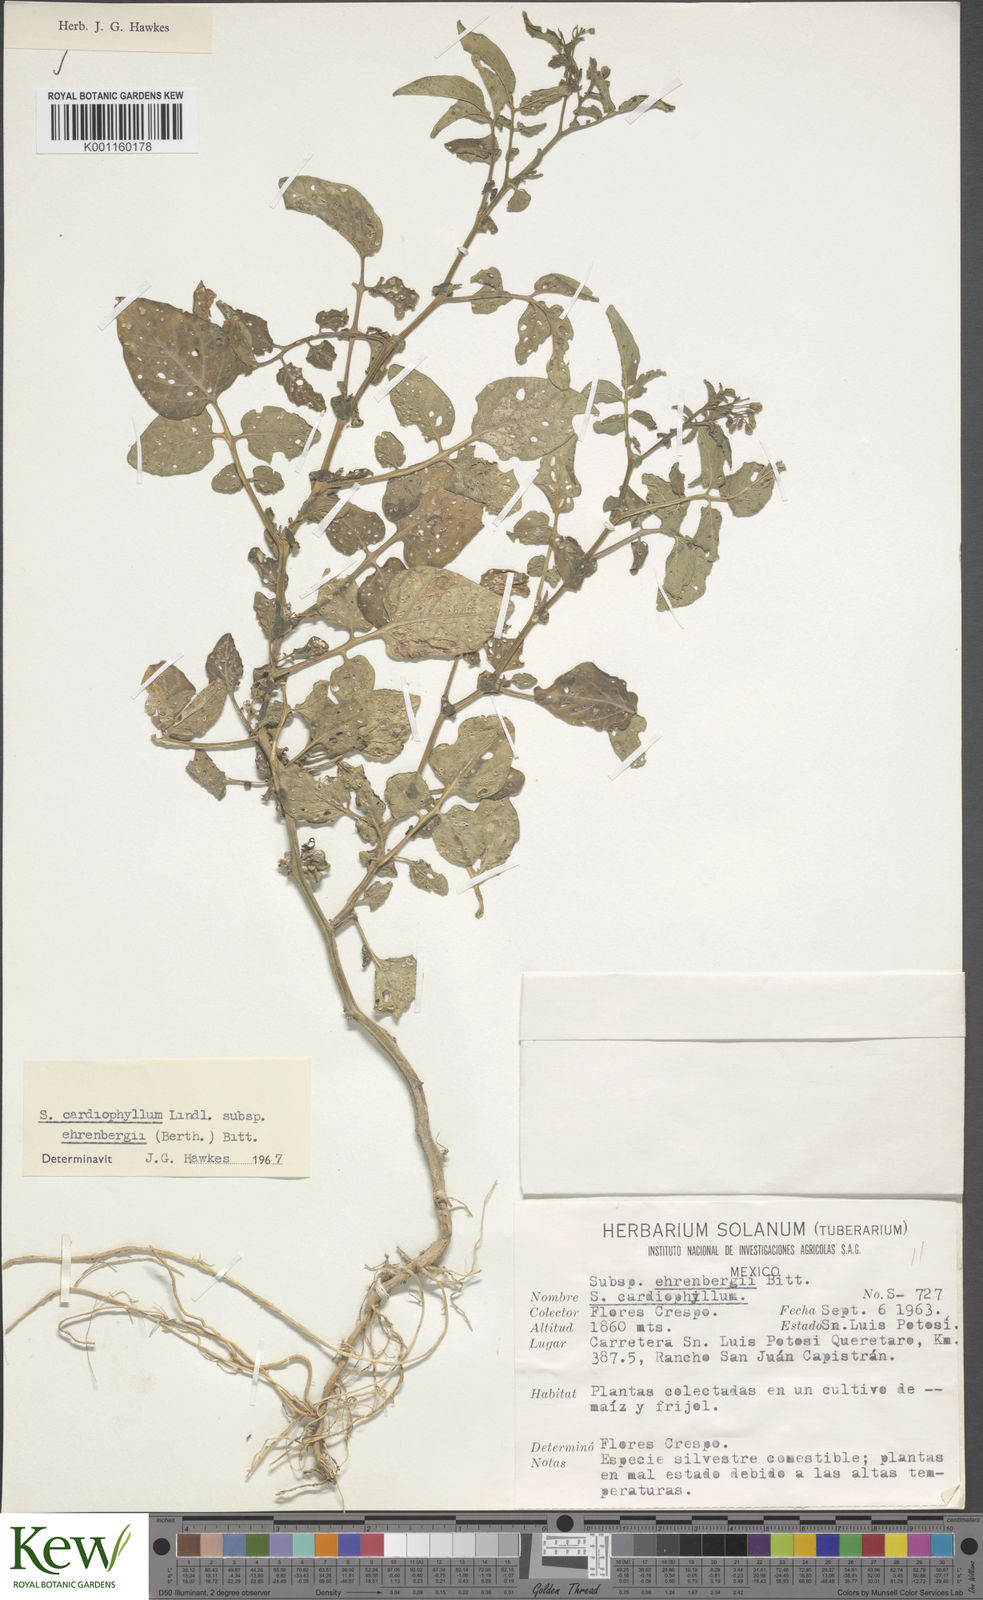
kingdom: Plantae
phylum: Tracheophyta
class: Magnoliopsida
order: Solanales
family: Solanaceae
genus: Solanum
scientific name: Solanum cardiophyllum
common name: Heartleaf horsenettle
